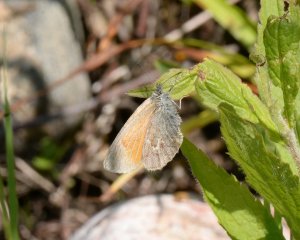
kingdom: Animalia
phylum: Arthropoda
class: Insecta
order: Lepidoptera
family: Nymphalidae
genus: Coenonympha
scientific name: Coenonympha tullia
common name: Large Heath
